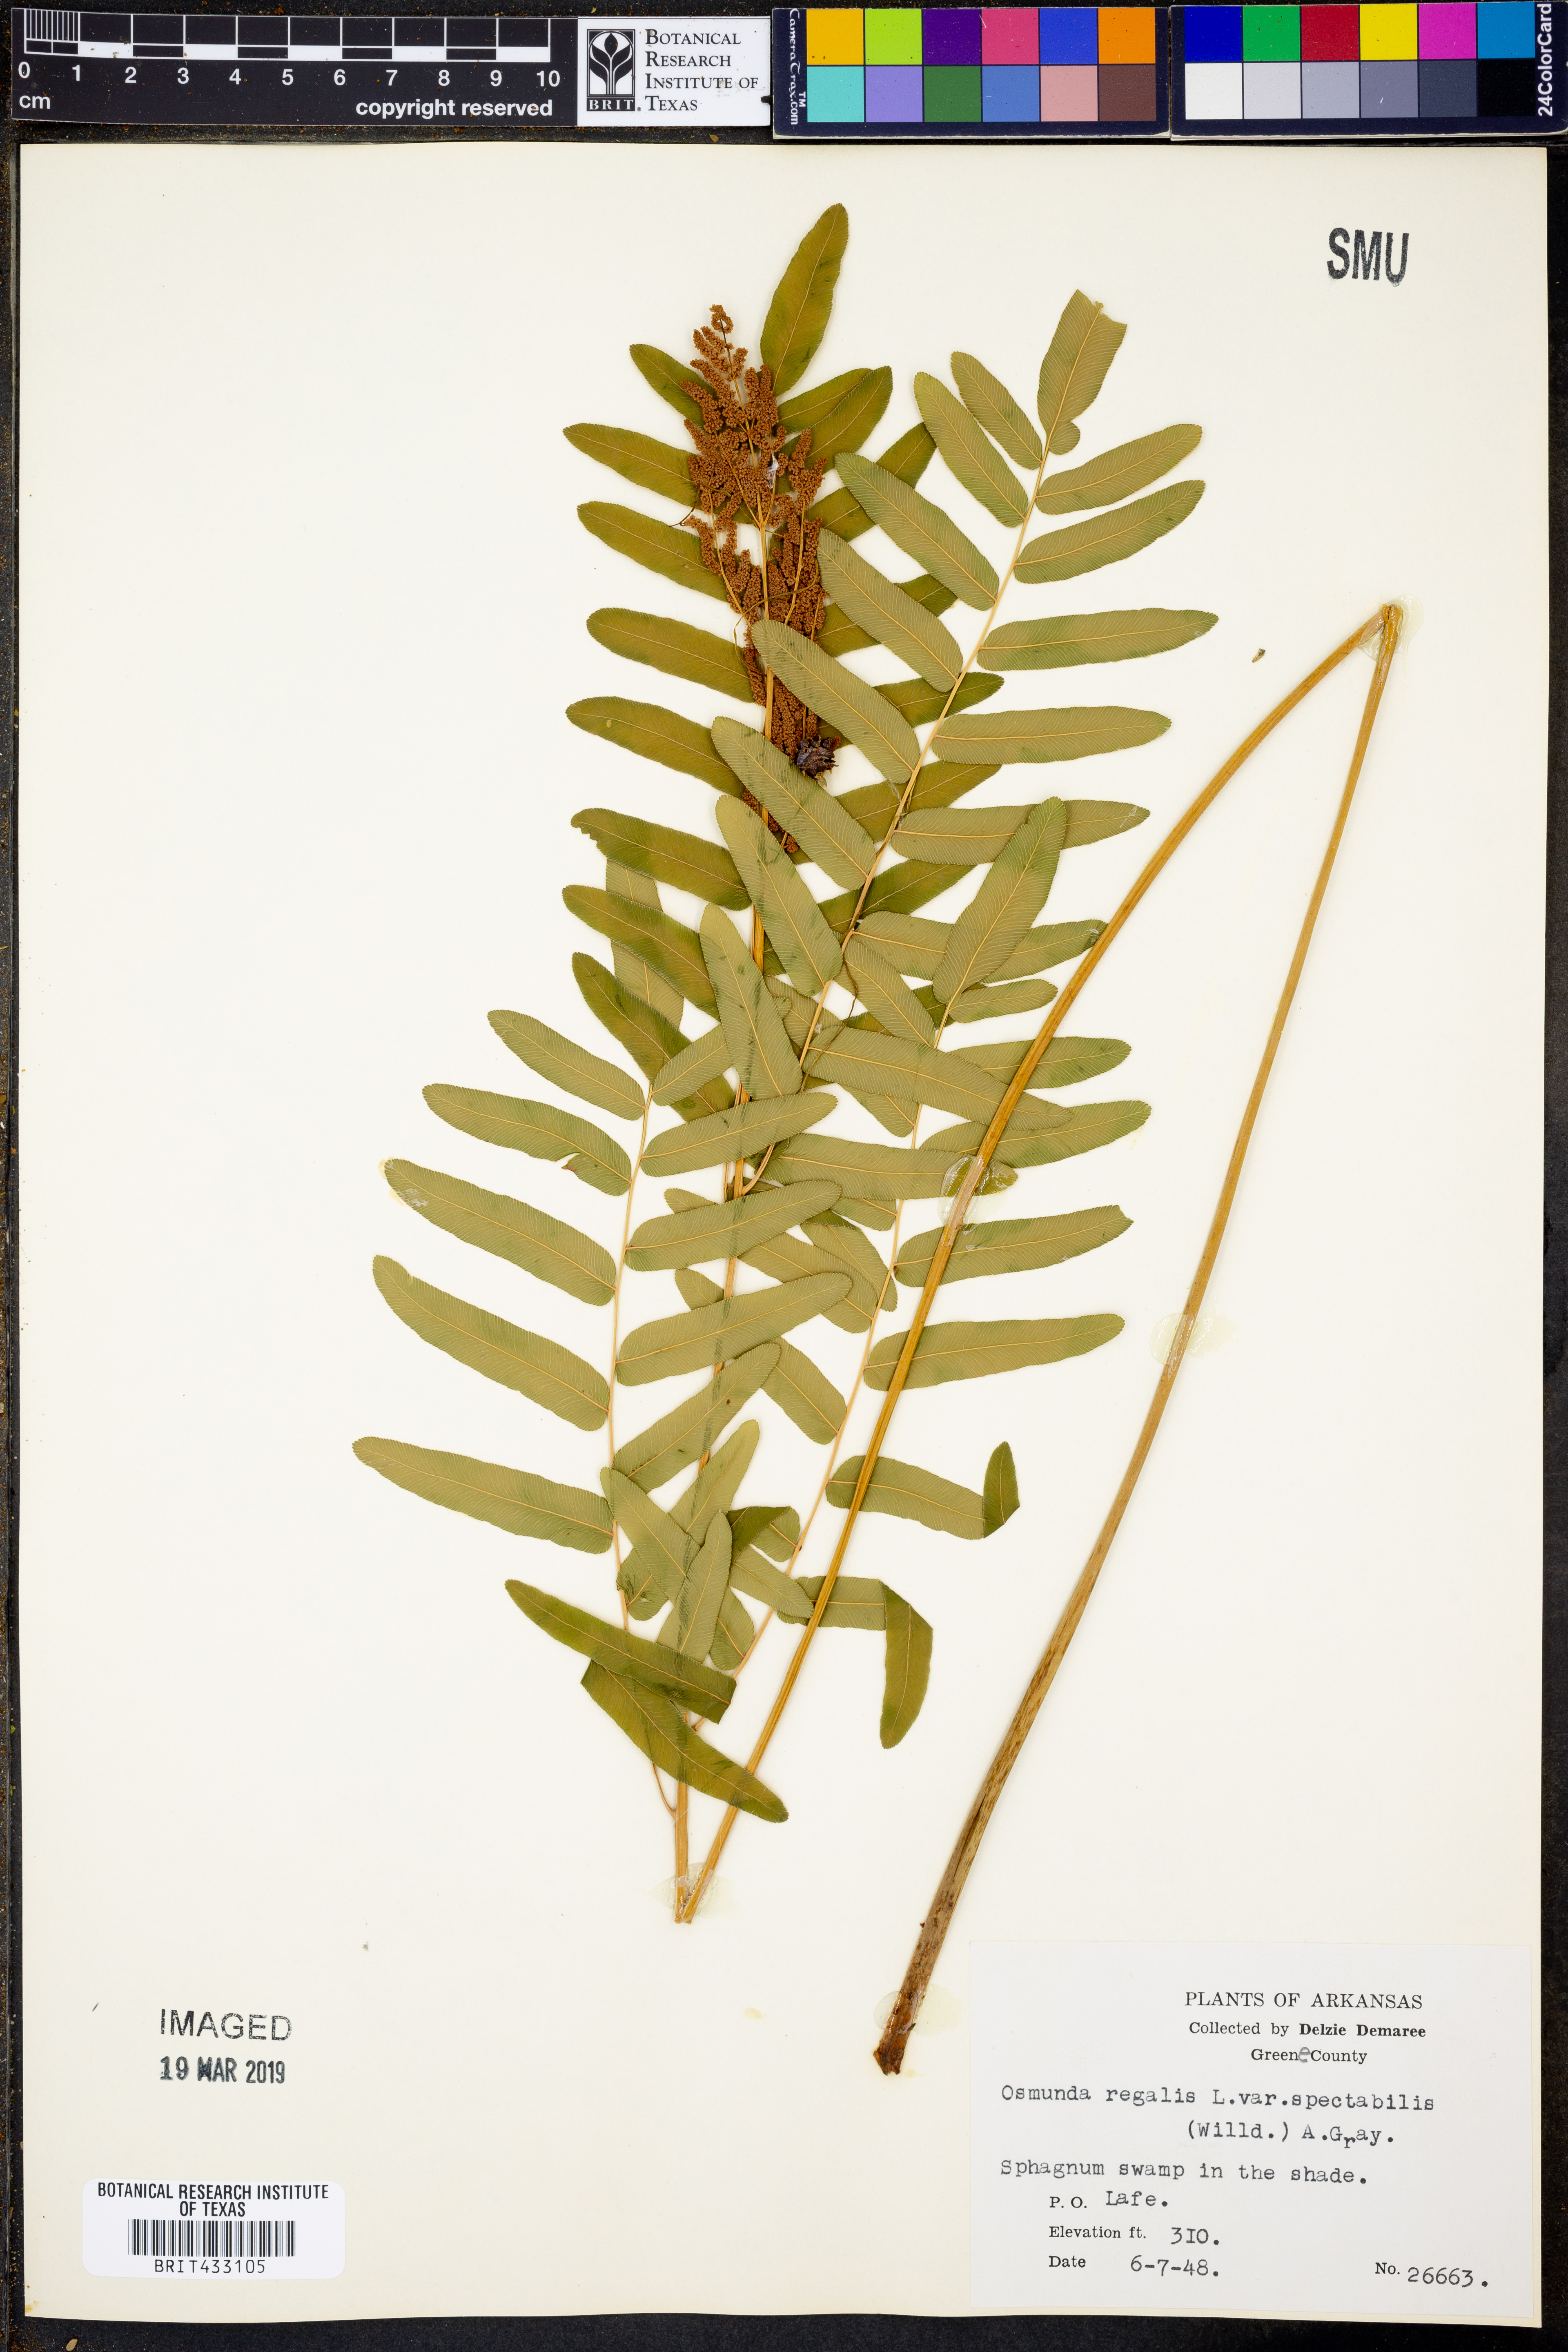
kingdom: Plantae
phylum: Tracheophyta
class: Polypodiopsida
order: Osmundales
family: Osmundaceae
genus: Osmunda
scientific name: Osmunda spectabilis
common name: American royal fern
